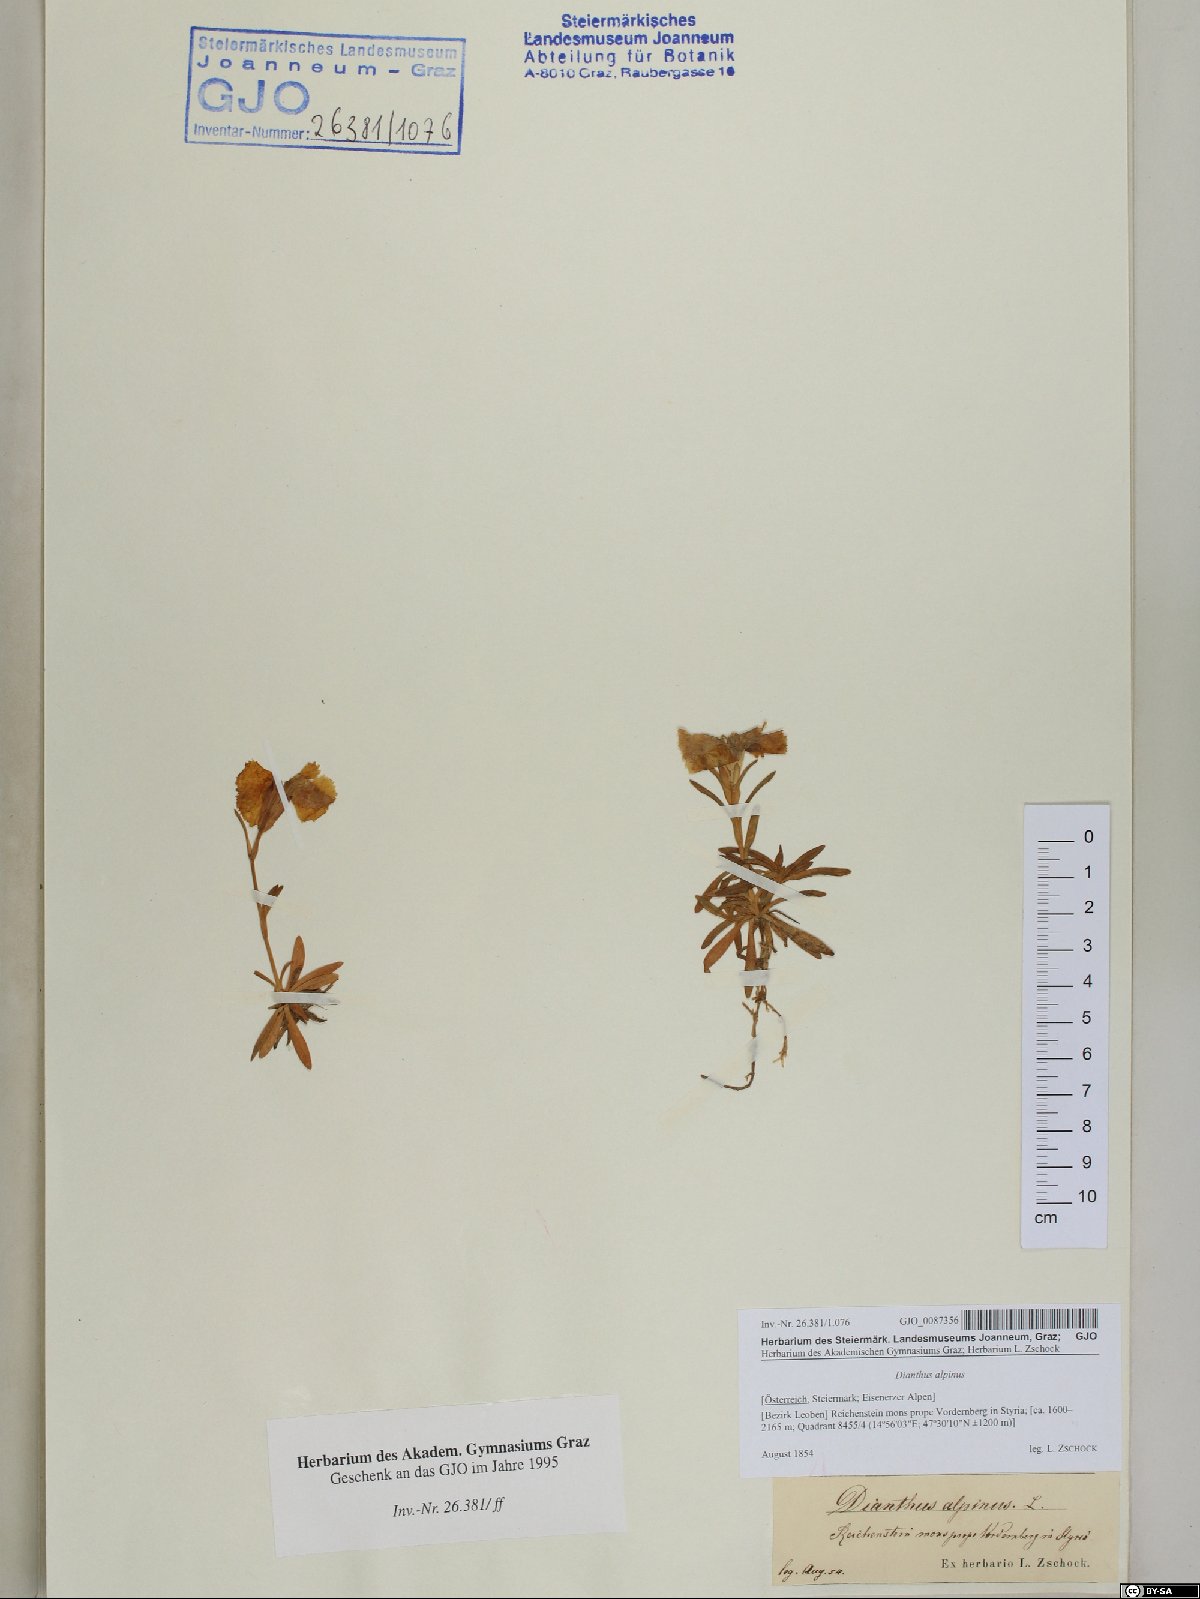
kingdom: Plantae
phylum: Tracheophyta
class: Magnoliopsida
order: Caryophyllales
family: Caryophyllaceae
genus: Dianthus
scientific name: Dianthus alpinus
